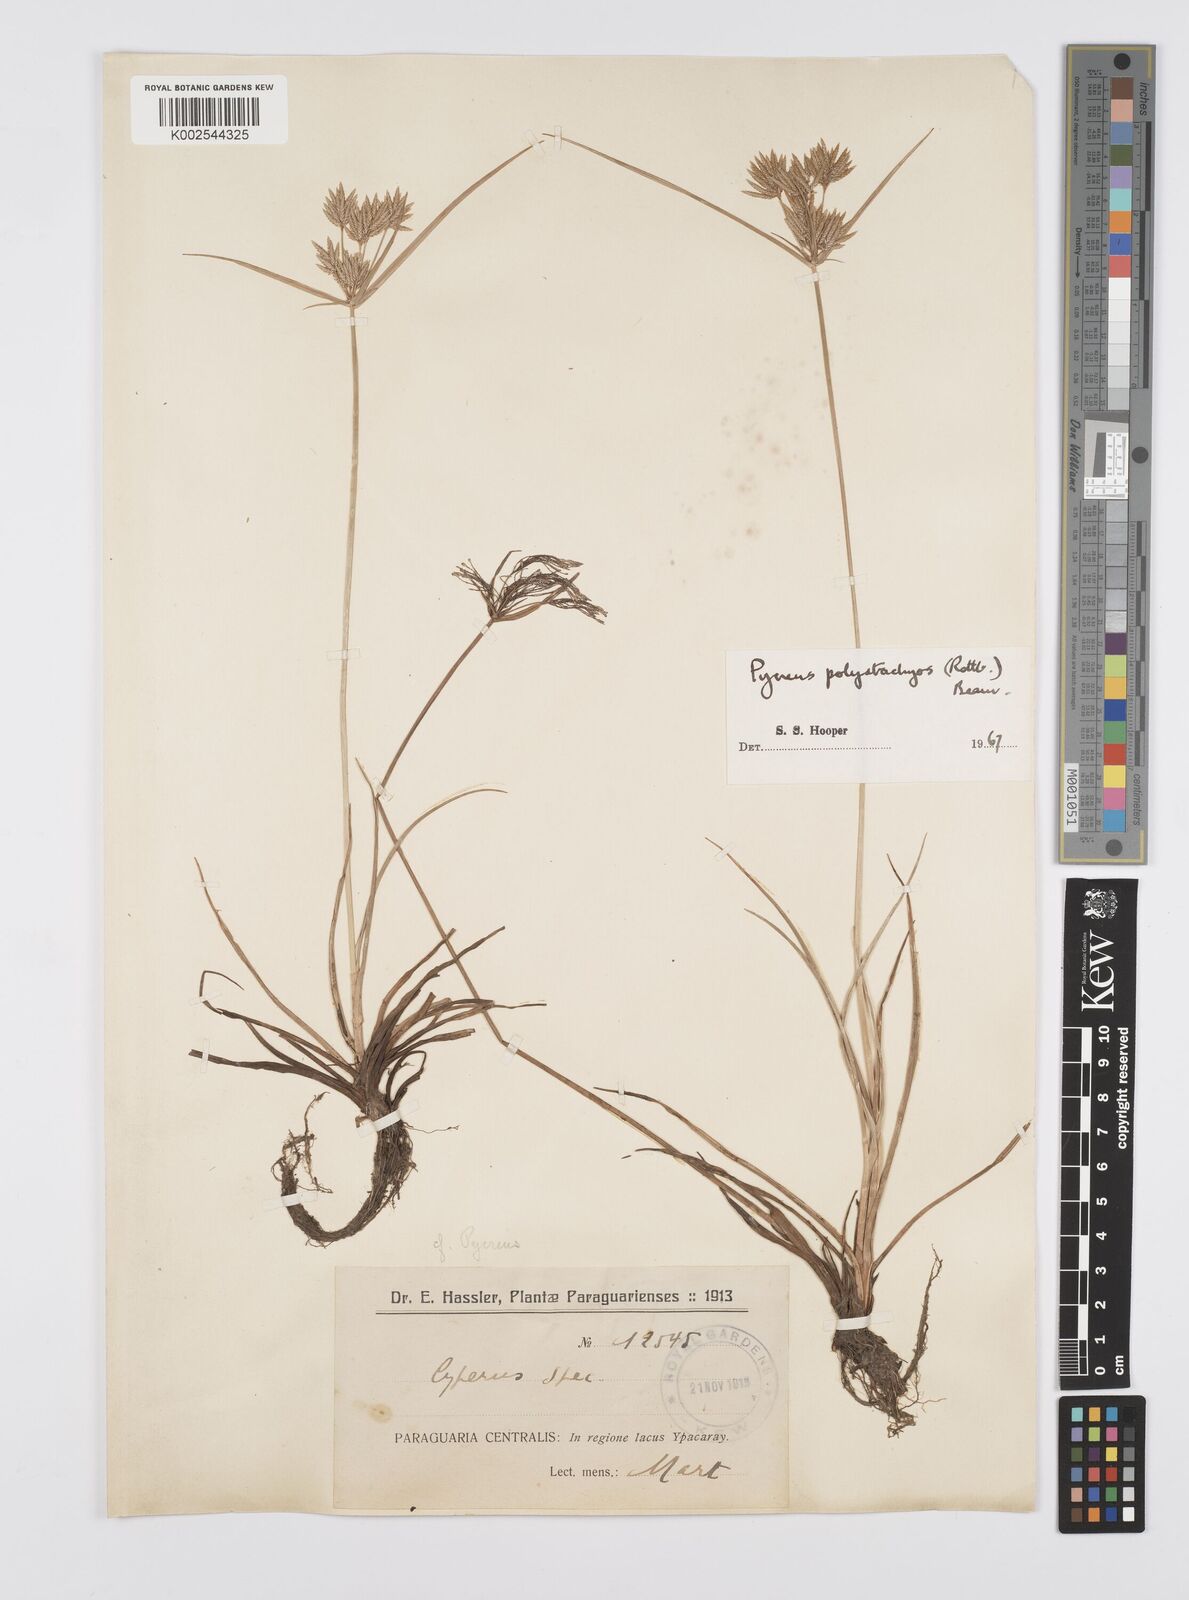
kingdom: Plantae
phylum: Tracheophyta
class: Liliopsida
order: Poales
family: Cyperaceae
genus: Cyperus
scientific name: Cyperus polystachyos
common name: Bunchy flat sedge
